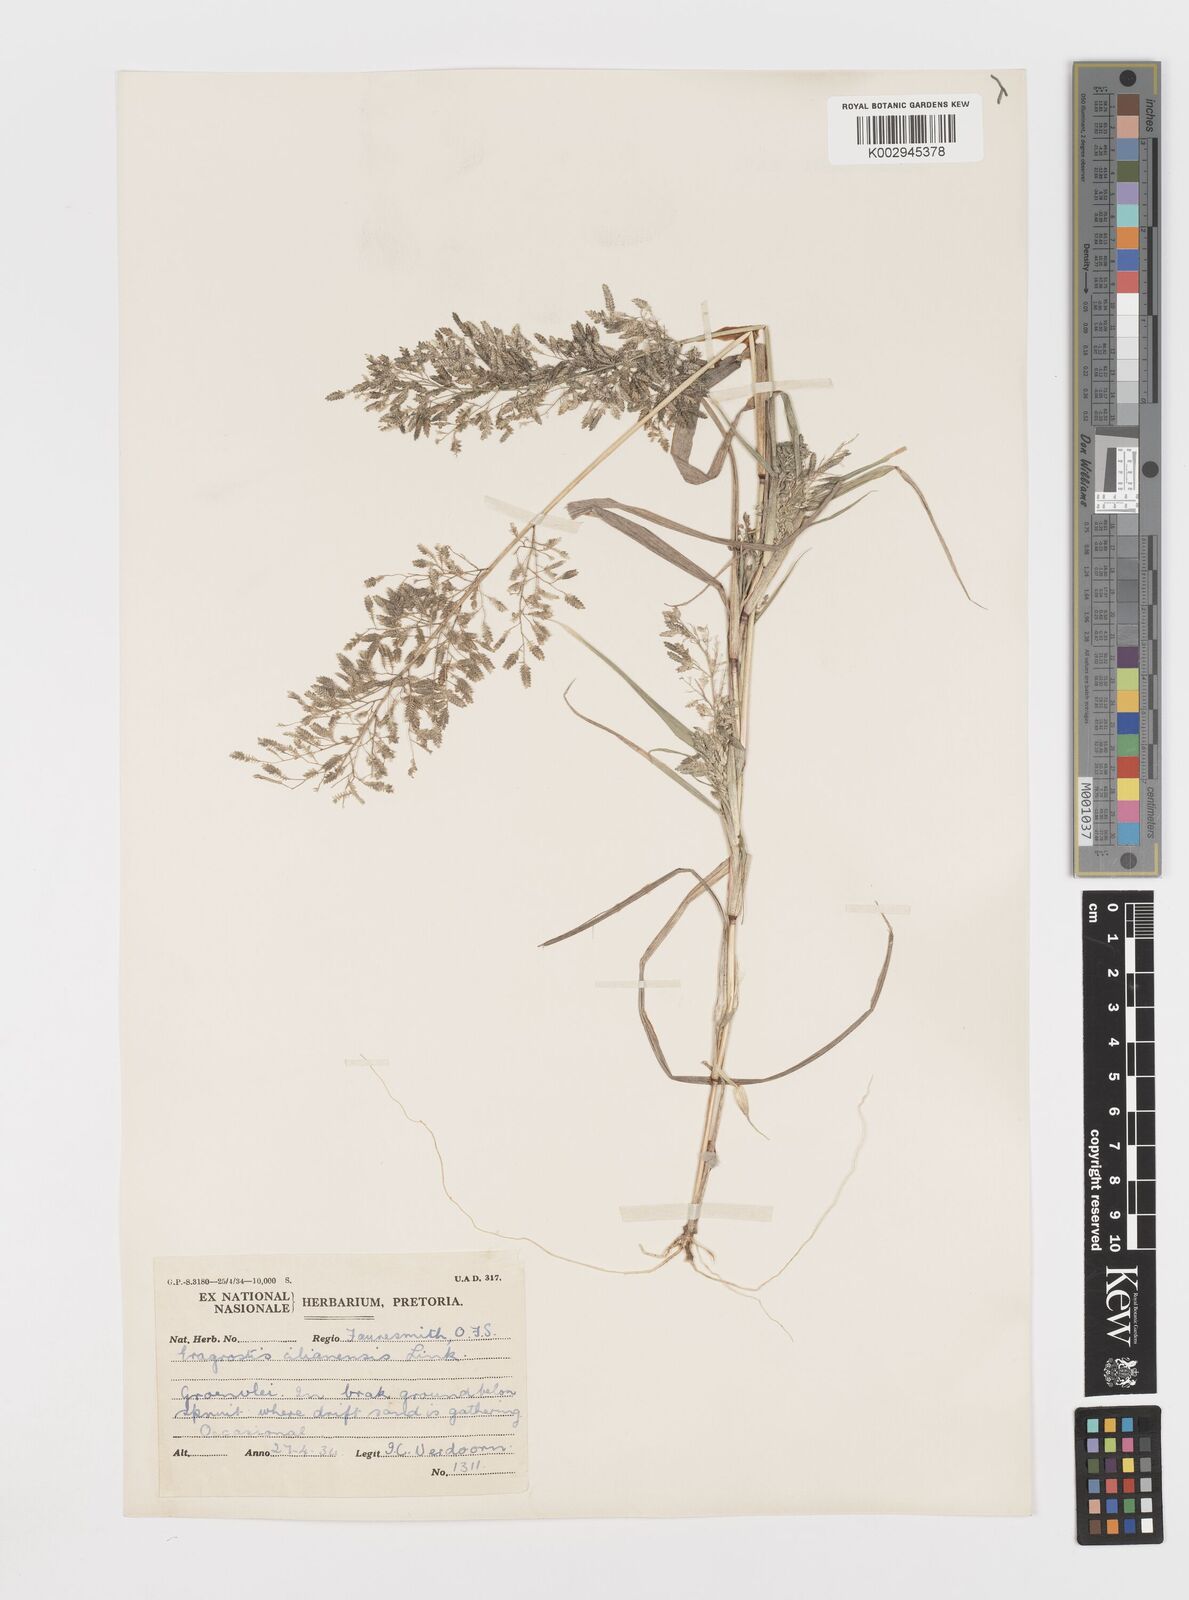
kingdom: Plantae
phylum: Tracheophyta
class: Liliopsida
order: Poales
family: Poaceae
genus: Eragrostis
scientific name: Eragrostis cilianensis
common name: Stinkgrass
